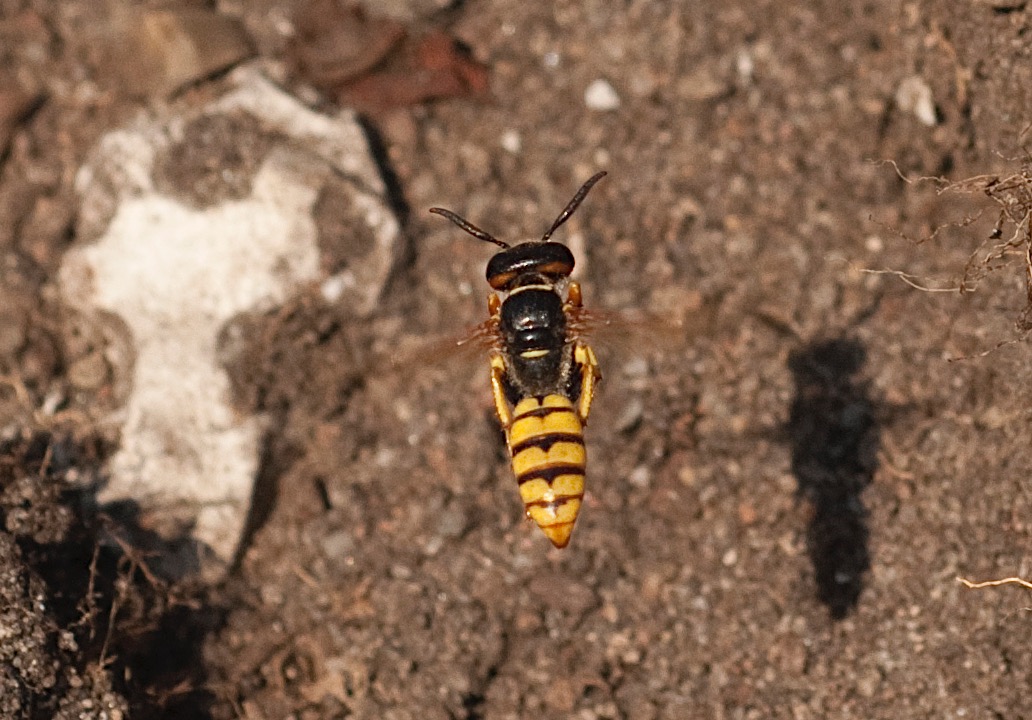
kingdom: Animalia
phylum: Arthropoda
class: Insecta
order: Hymenoptera
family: Crabronidae
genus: Philanthus
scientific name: Philanthus triangulum
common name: Biulv
